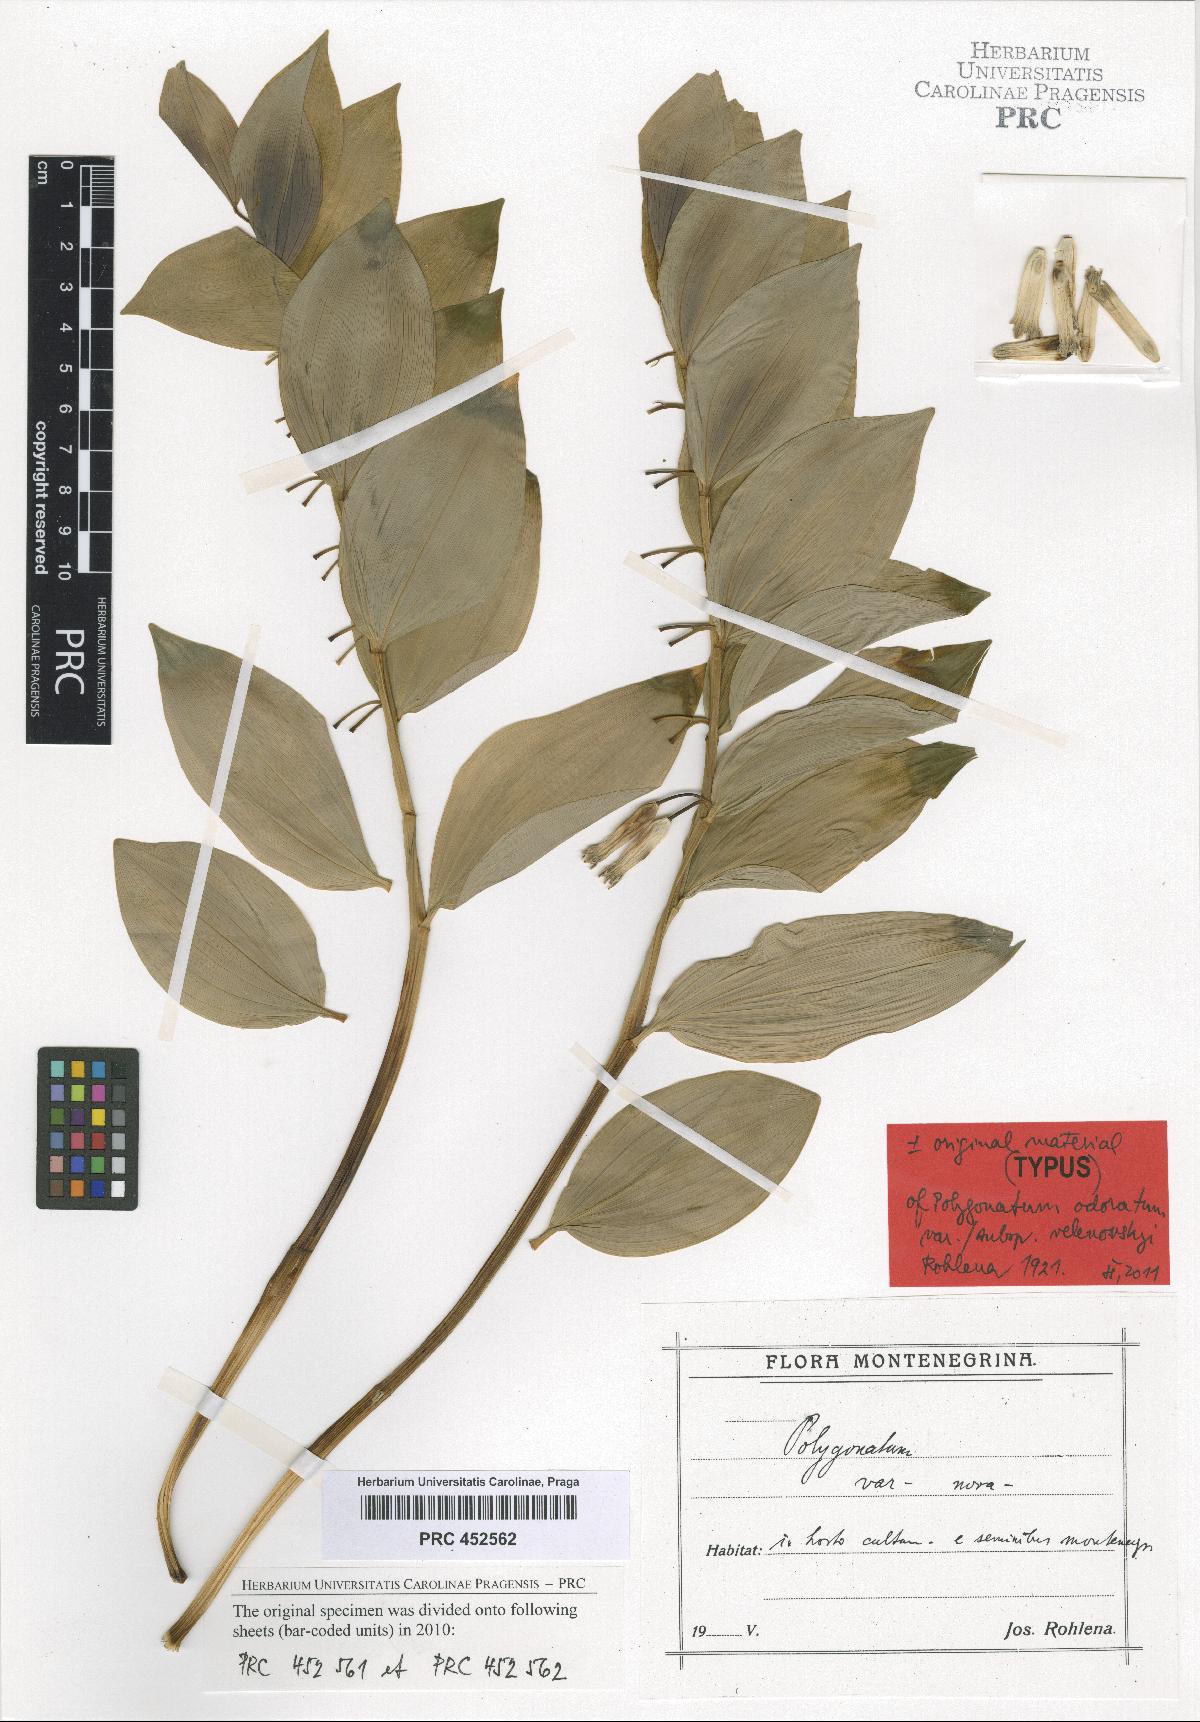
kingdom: Plantae
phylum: Tracheophyta
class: Liliopsida
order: Asparagales
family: Asparagaceae
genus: Polygonatum
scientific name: Polygonatum velenovskyi
